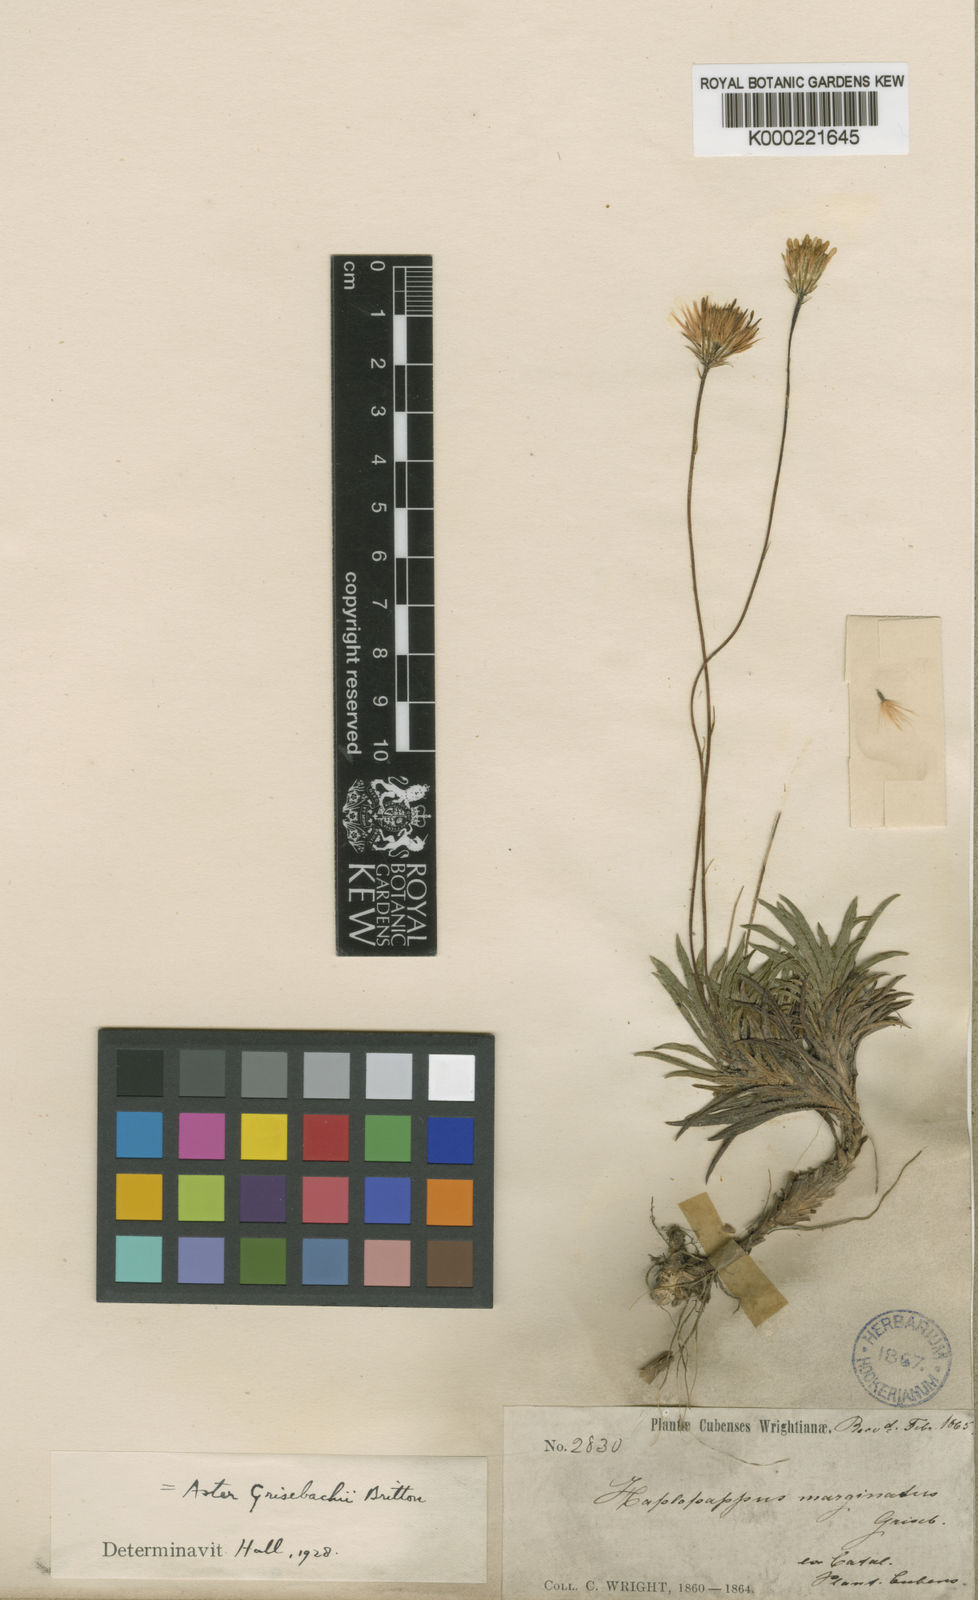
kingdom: Plantae
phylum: Tracheophyta
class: Magnoliopsida
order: Asterales
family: Asteraceae
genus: Neja
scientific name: Neja marginata
